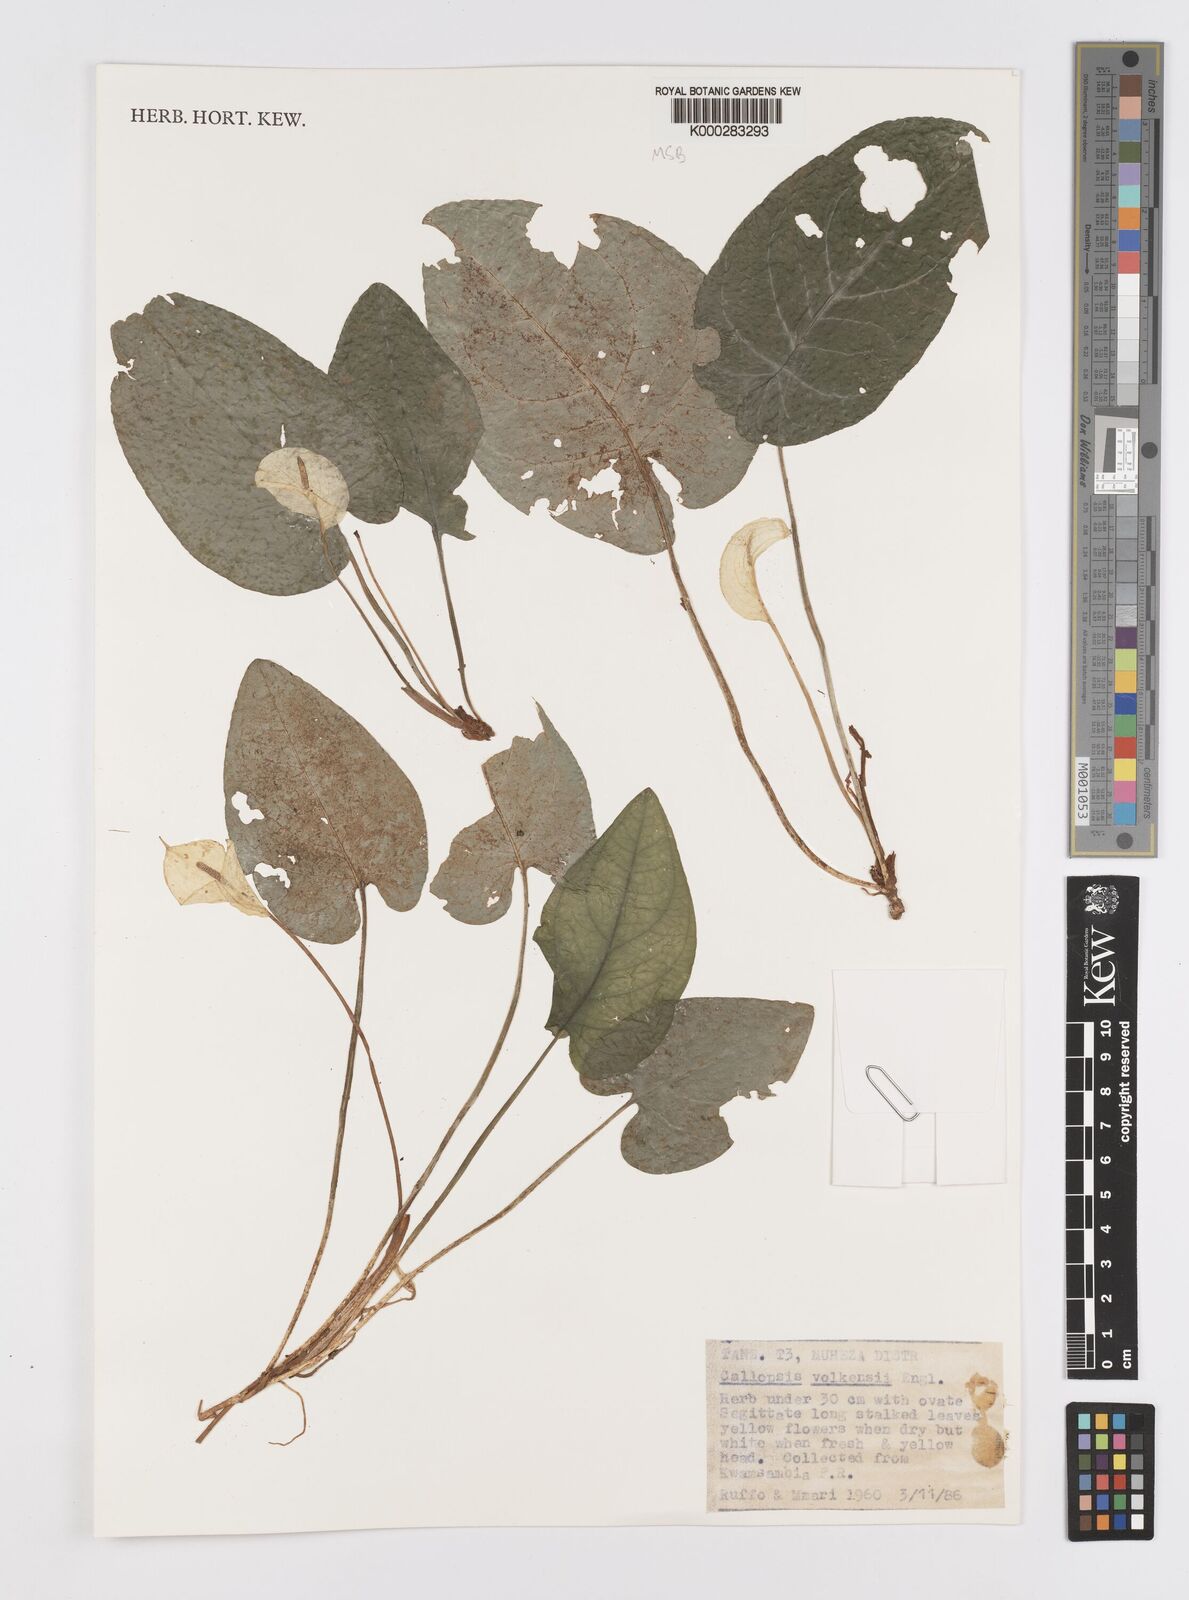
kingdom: Plantae
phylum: Tracheophyta
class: Liliopsida
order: Alismatales
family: Araceae
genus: Callopsis
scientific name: Callopsis volkensii
